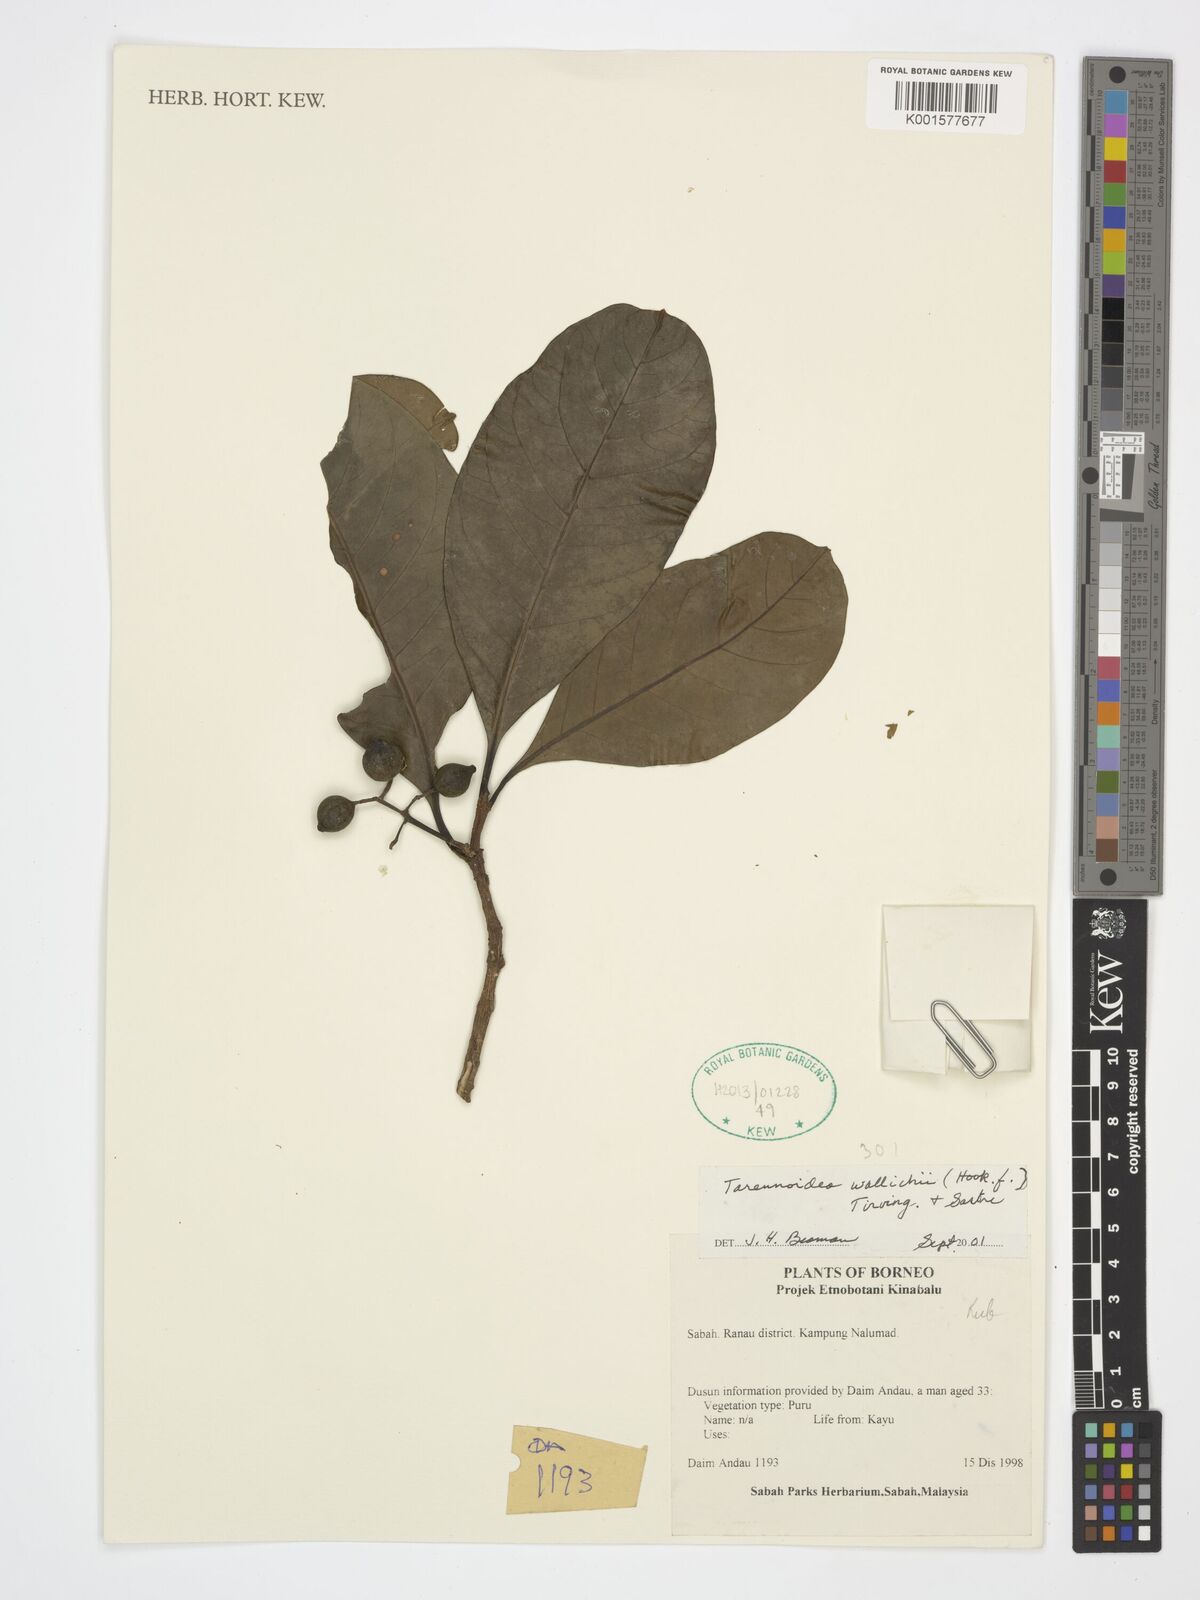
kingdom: Plantae
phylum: Tracheophyta
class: Magnoliopsida
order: Gentianales
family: Rubiaceae
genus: Tarennoidea
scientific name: Tarennoidea wallichii
